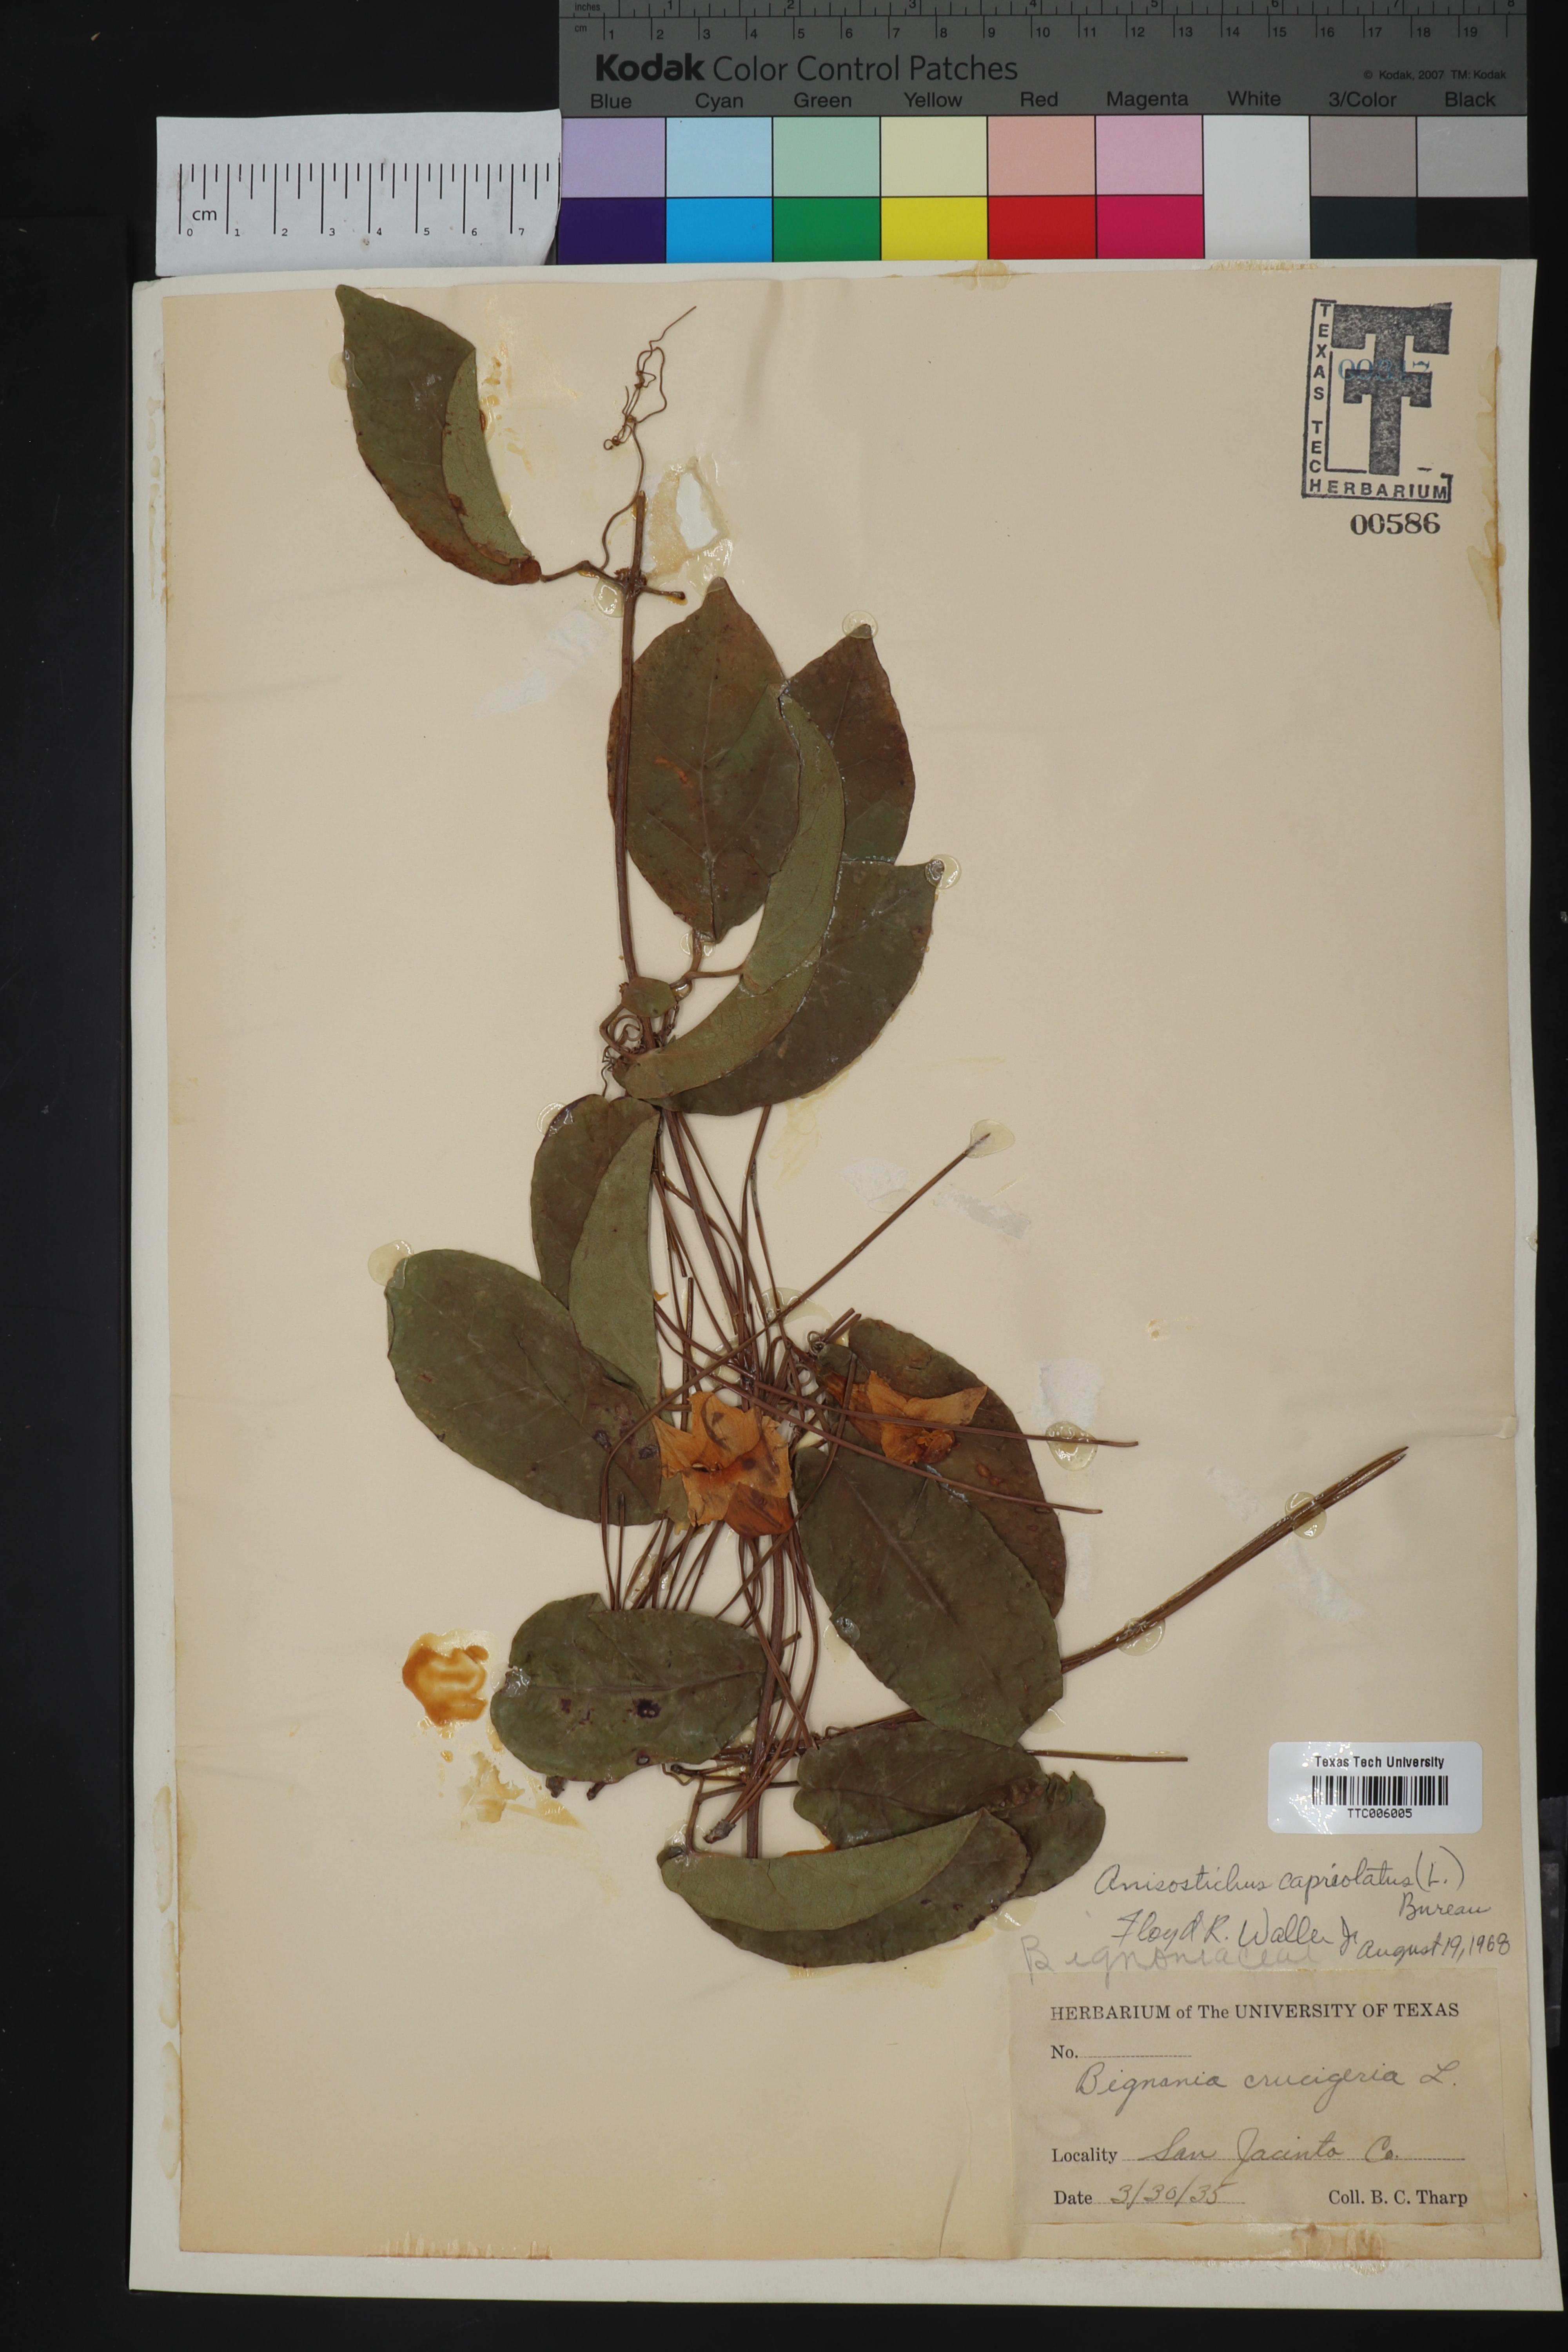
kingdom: Plantae
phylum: Tracheophyta
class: Magnoliopsida
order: Lamiales
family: Bignoniaceae
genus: Bignonia
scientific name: Bignonia capreolata
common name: Crossvine
